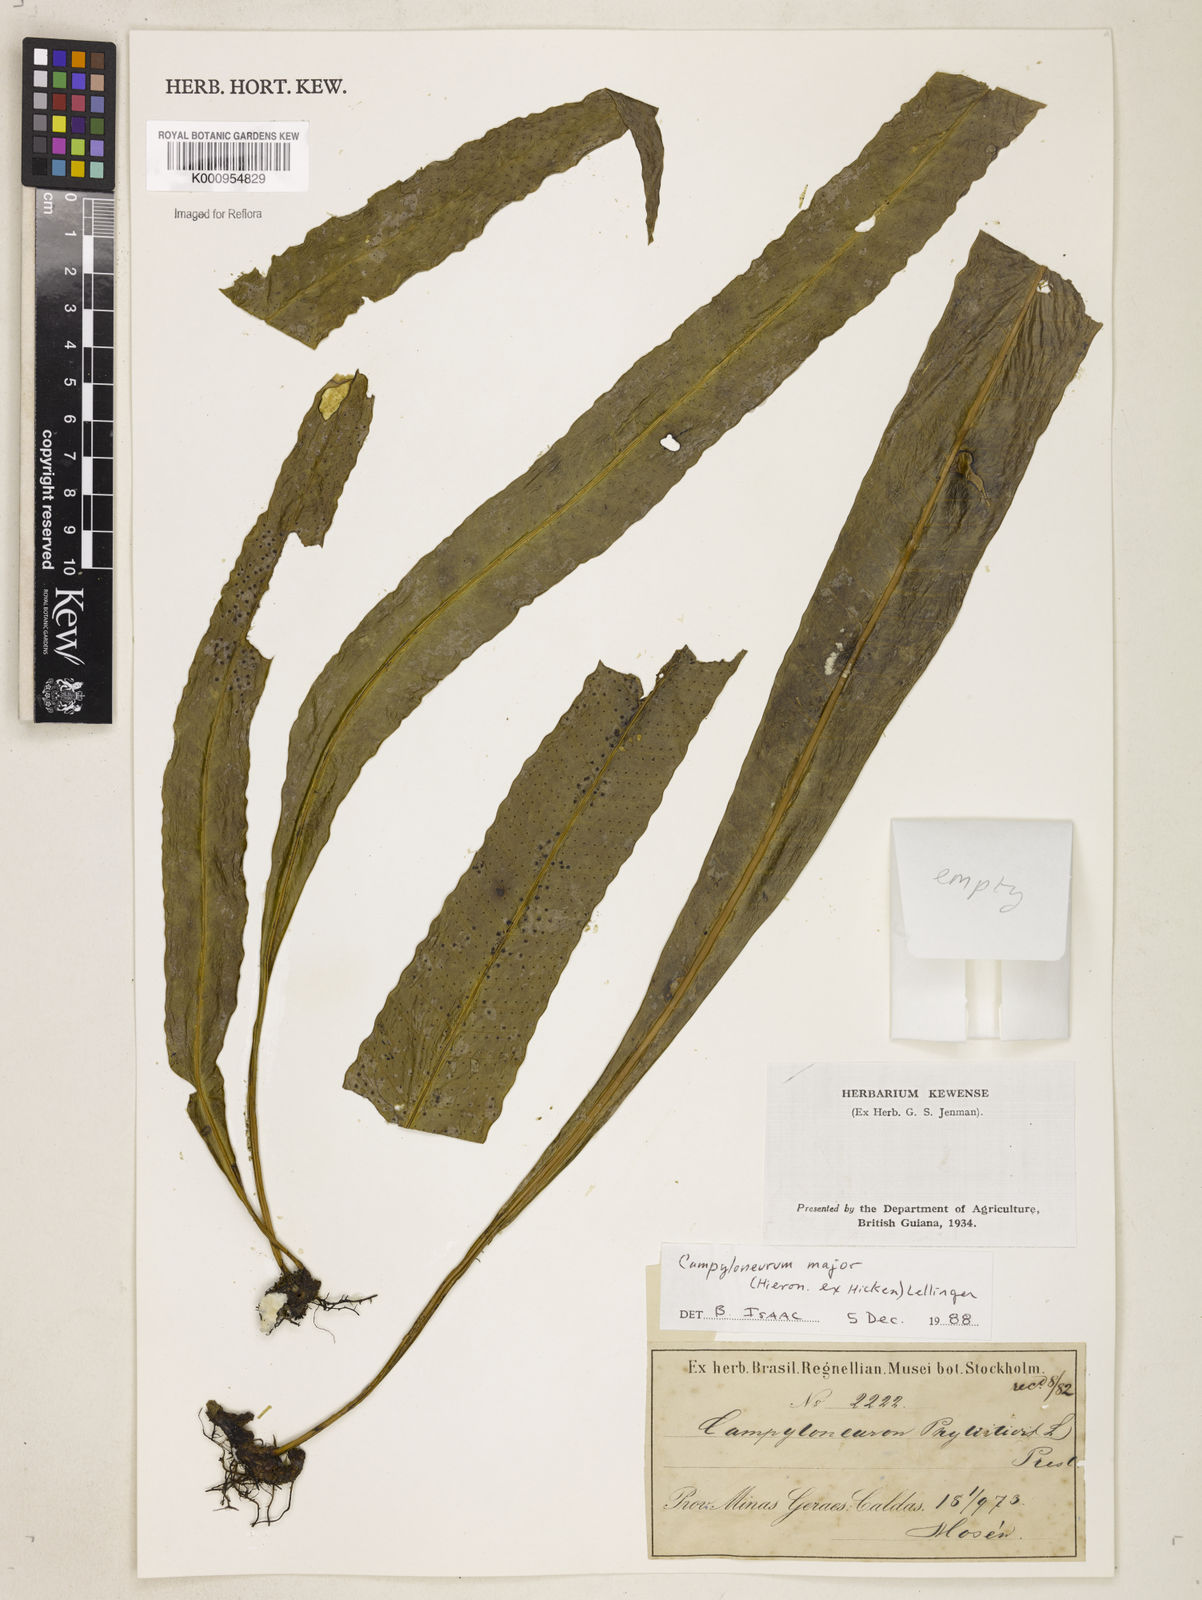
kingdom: Plantae
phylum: Tracheophyta
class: Polypodiopsida
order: Polypodiales
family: Polypodiaceae
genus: Campyloneurum
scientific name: Campyloneurum majus
